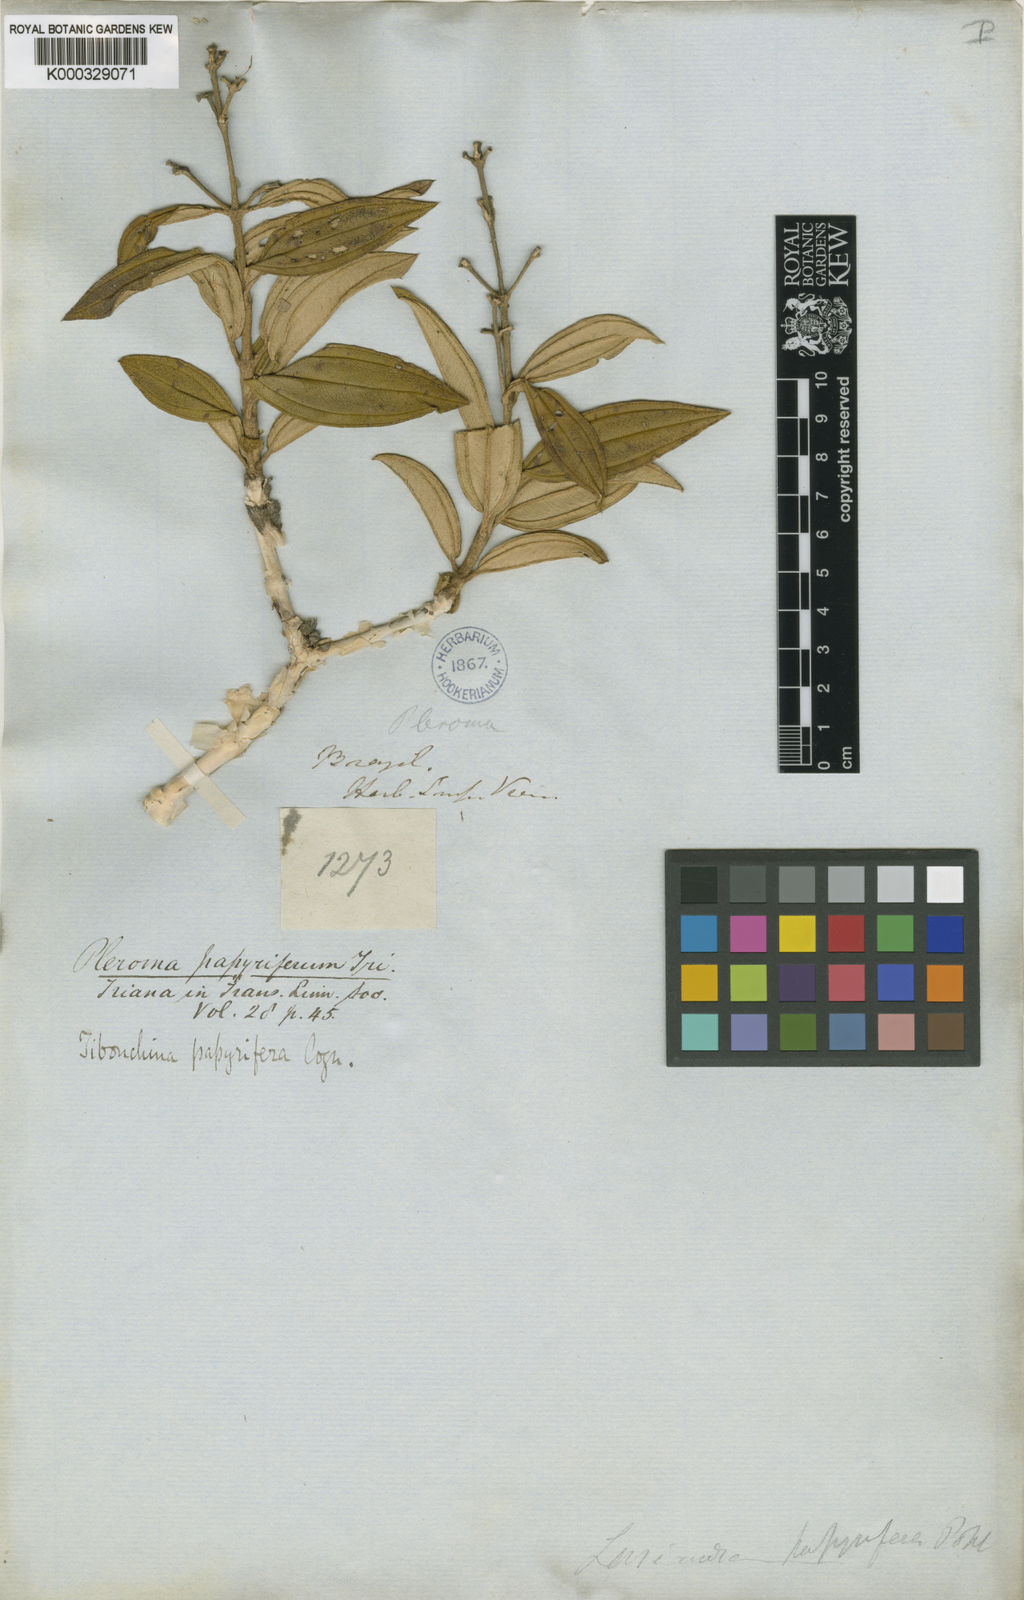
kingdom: Plantae
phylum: Tracheophyta
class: Magnoliopsida
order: Myrtales
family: Melastomataceae
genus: Pleroma
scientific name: Pleroma papyriferum
